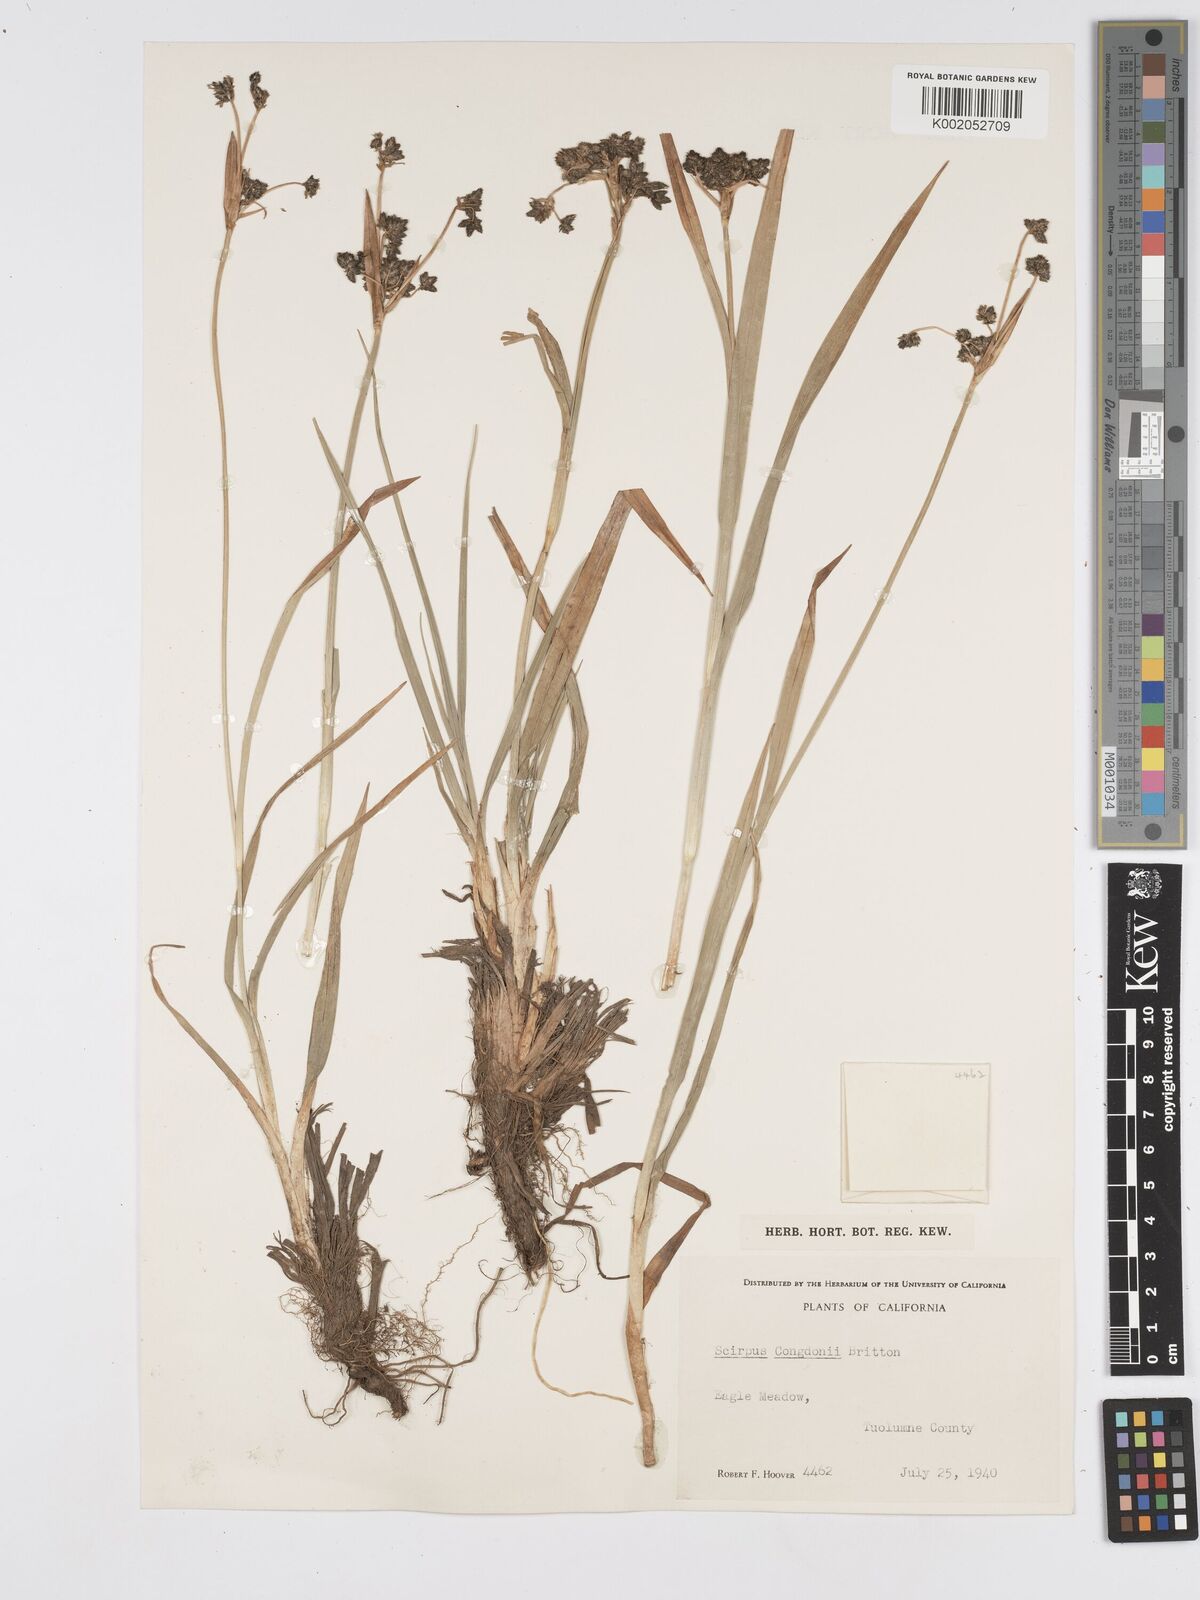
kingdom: Plantae
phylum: Tracheophyta
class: Liliopsida
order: Poales
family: Cyperaceae
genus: Scirpus
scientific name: Scirpus congdonii
